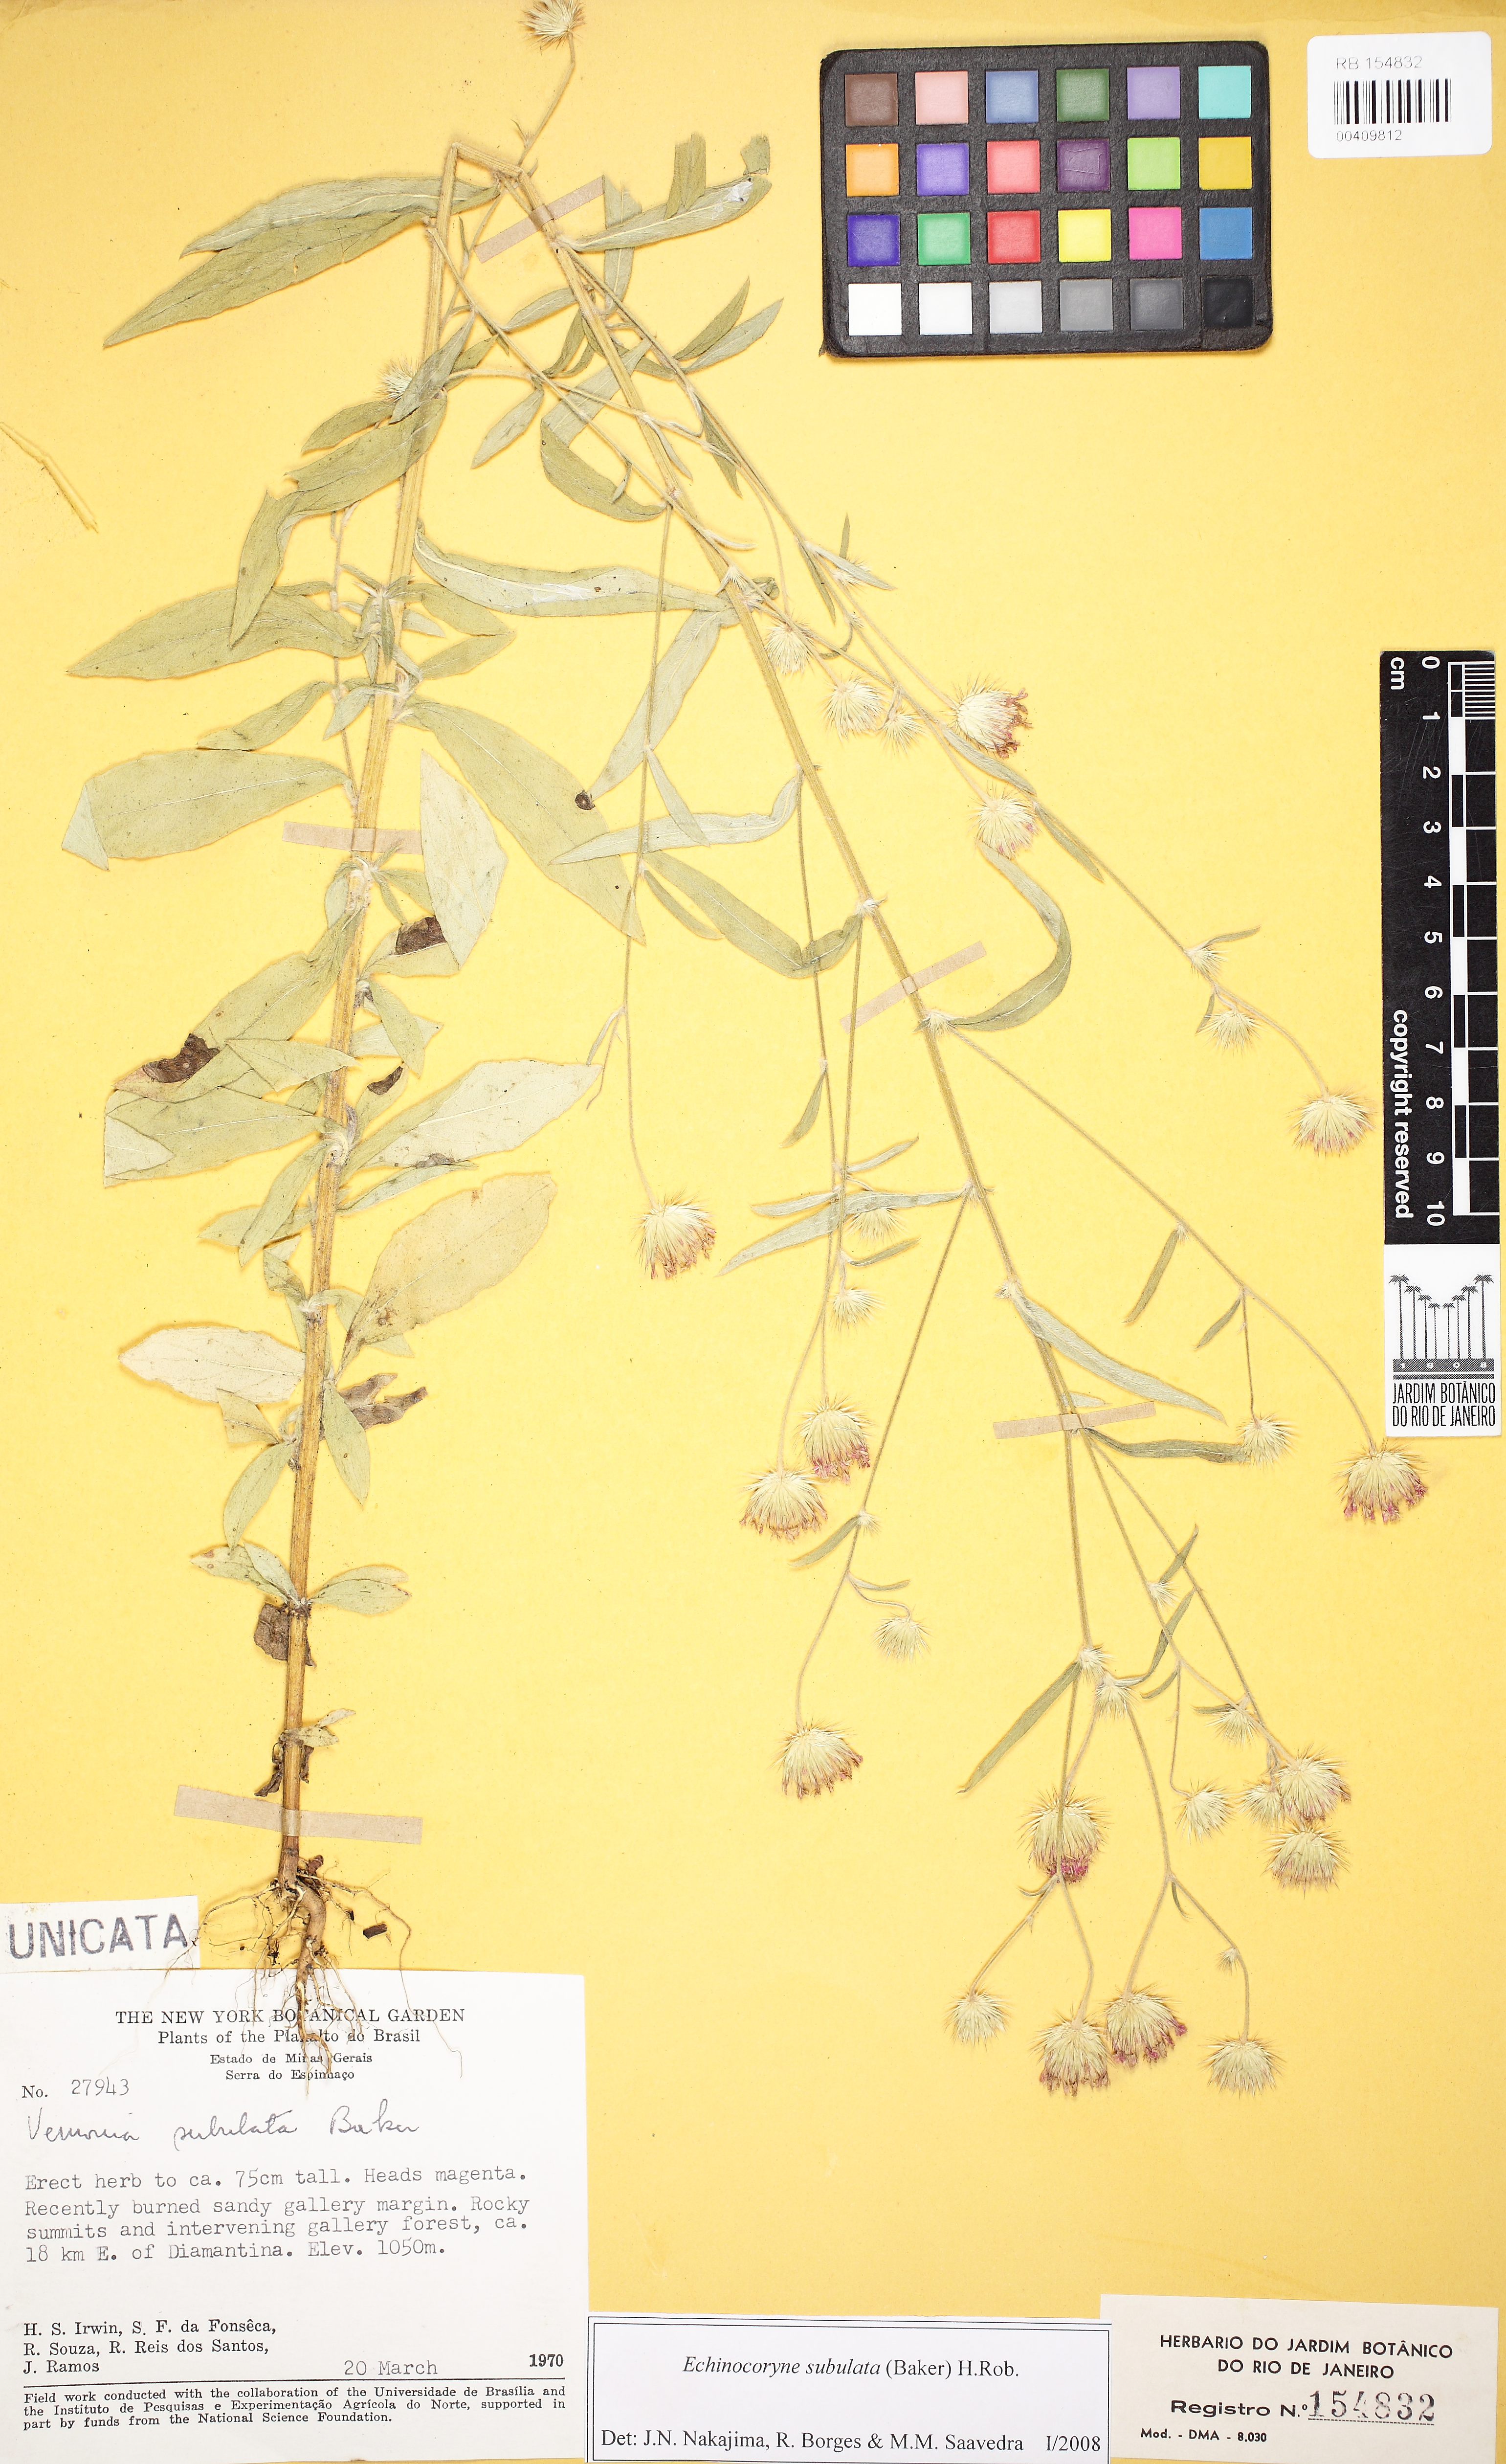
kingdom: Plantae
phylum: Tracheophyta
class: Magnoliopsida
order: Asterales
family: Asteraceae
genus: Echinocoryne
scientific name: Echinocoryne subulata
